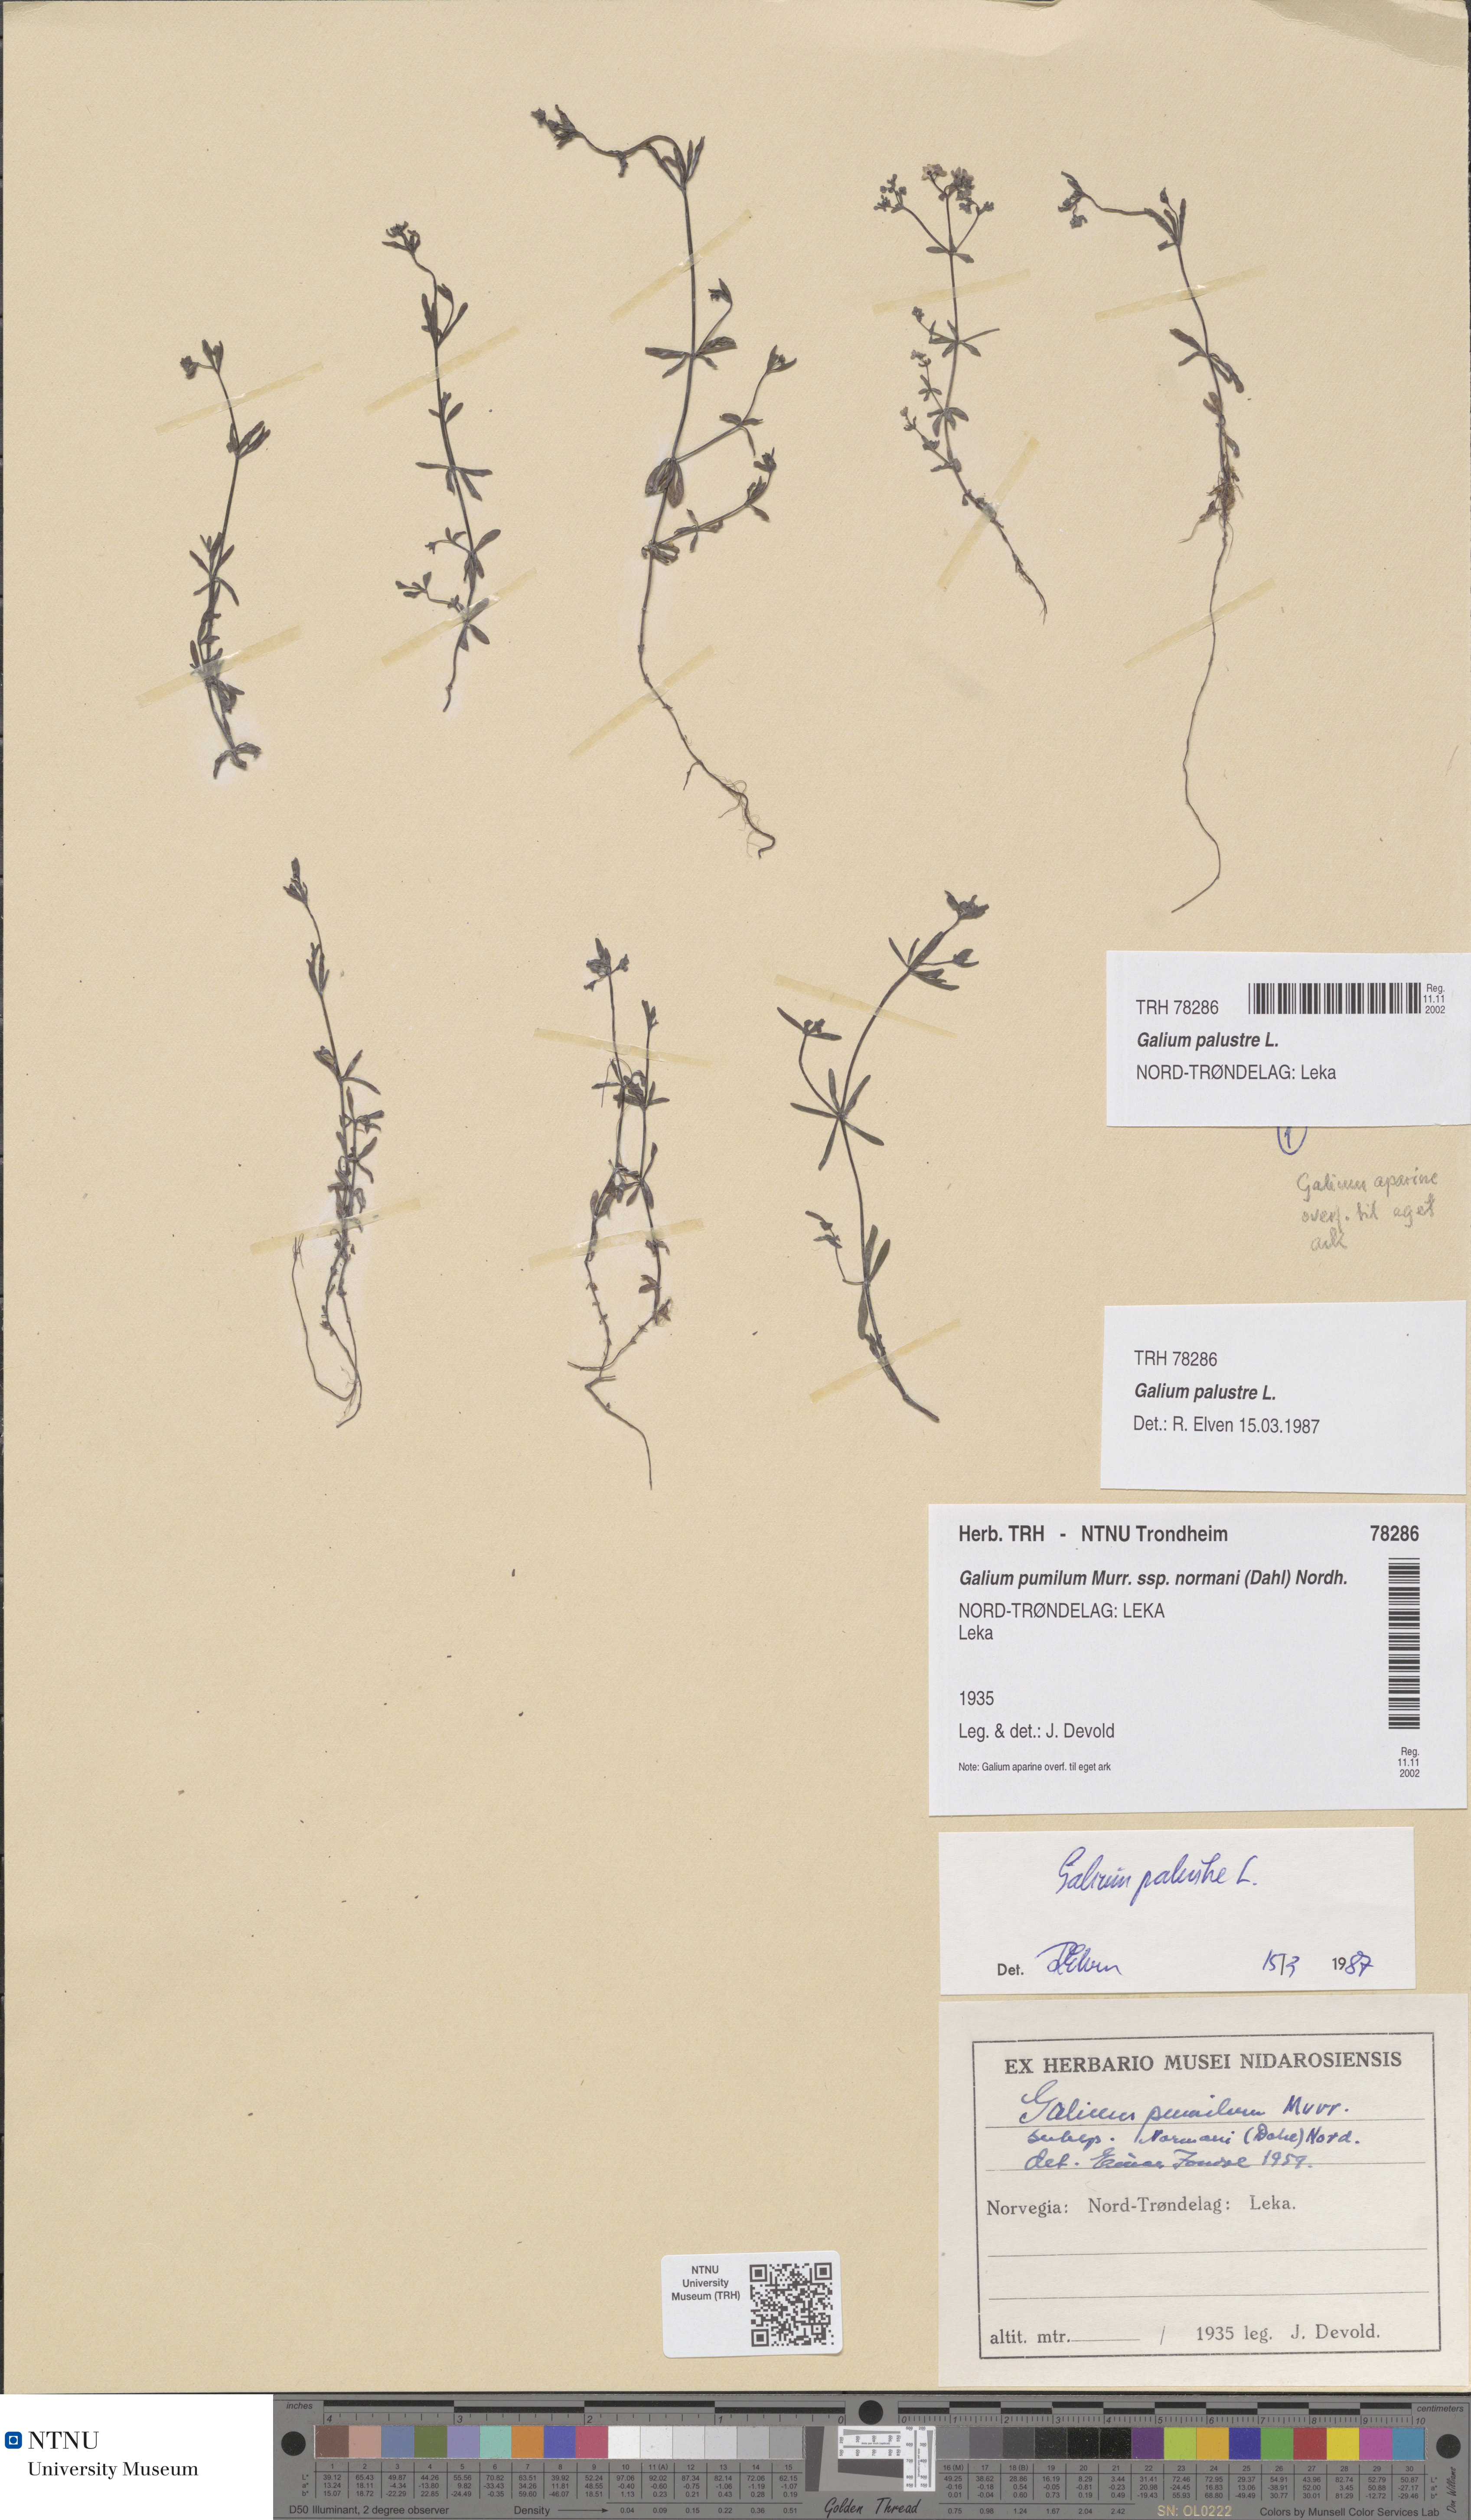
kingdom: Plantae
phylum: Tracheophyta
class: Magnoliopsida
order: Gentianales
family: Rubiaceae
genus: Galium
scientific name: Galium palustre
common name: Common marsh-bedstraw
